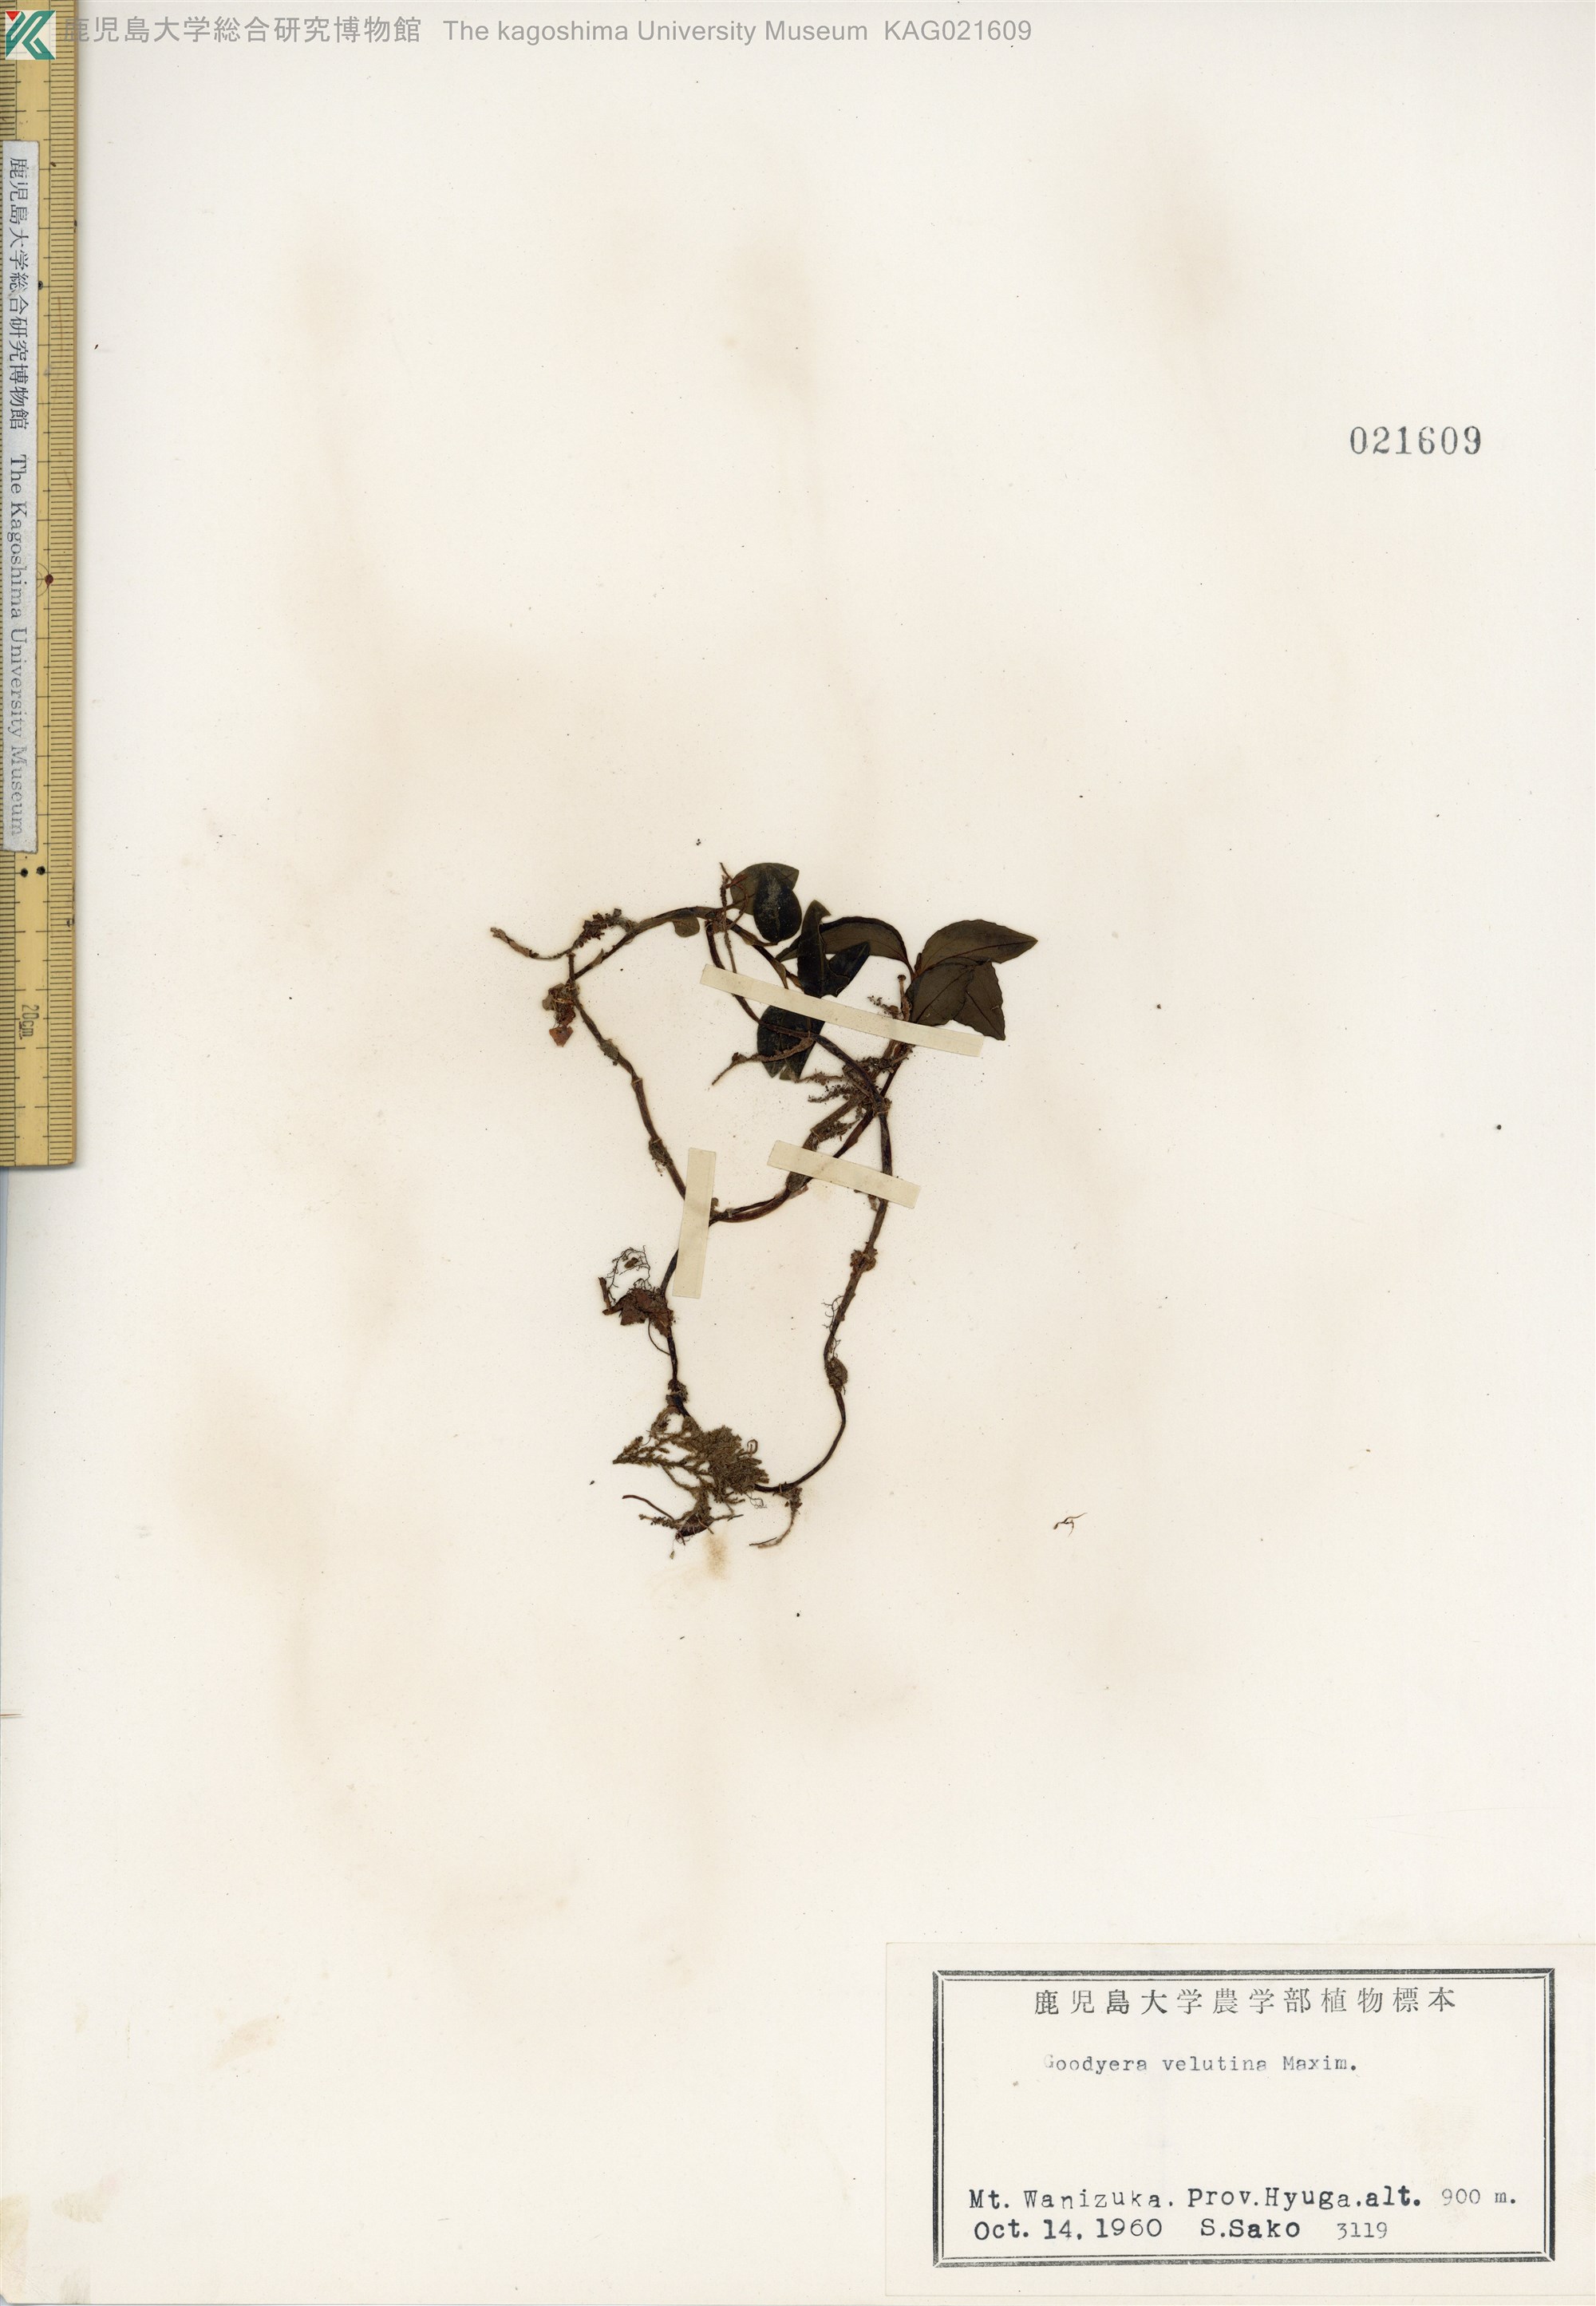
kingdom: Plantae
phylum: Tracheophyta
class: Liliopsida
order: Asparagales
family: Orchidaceae
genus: Goodyera
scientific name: Goodyera velutina
